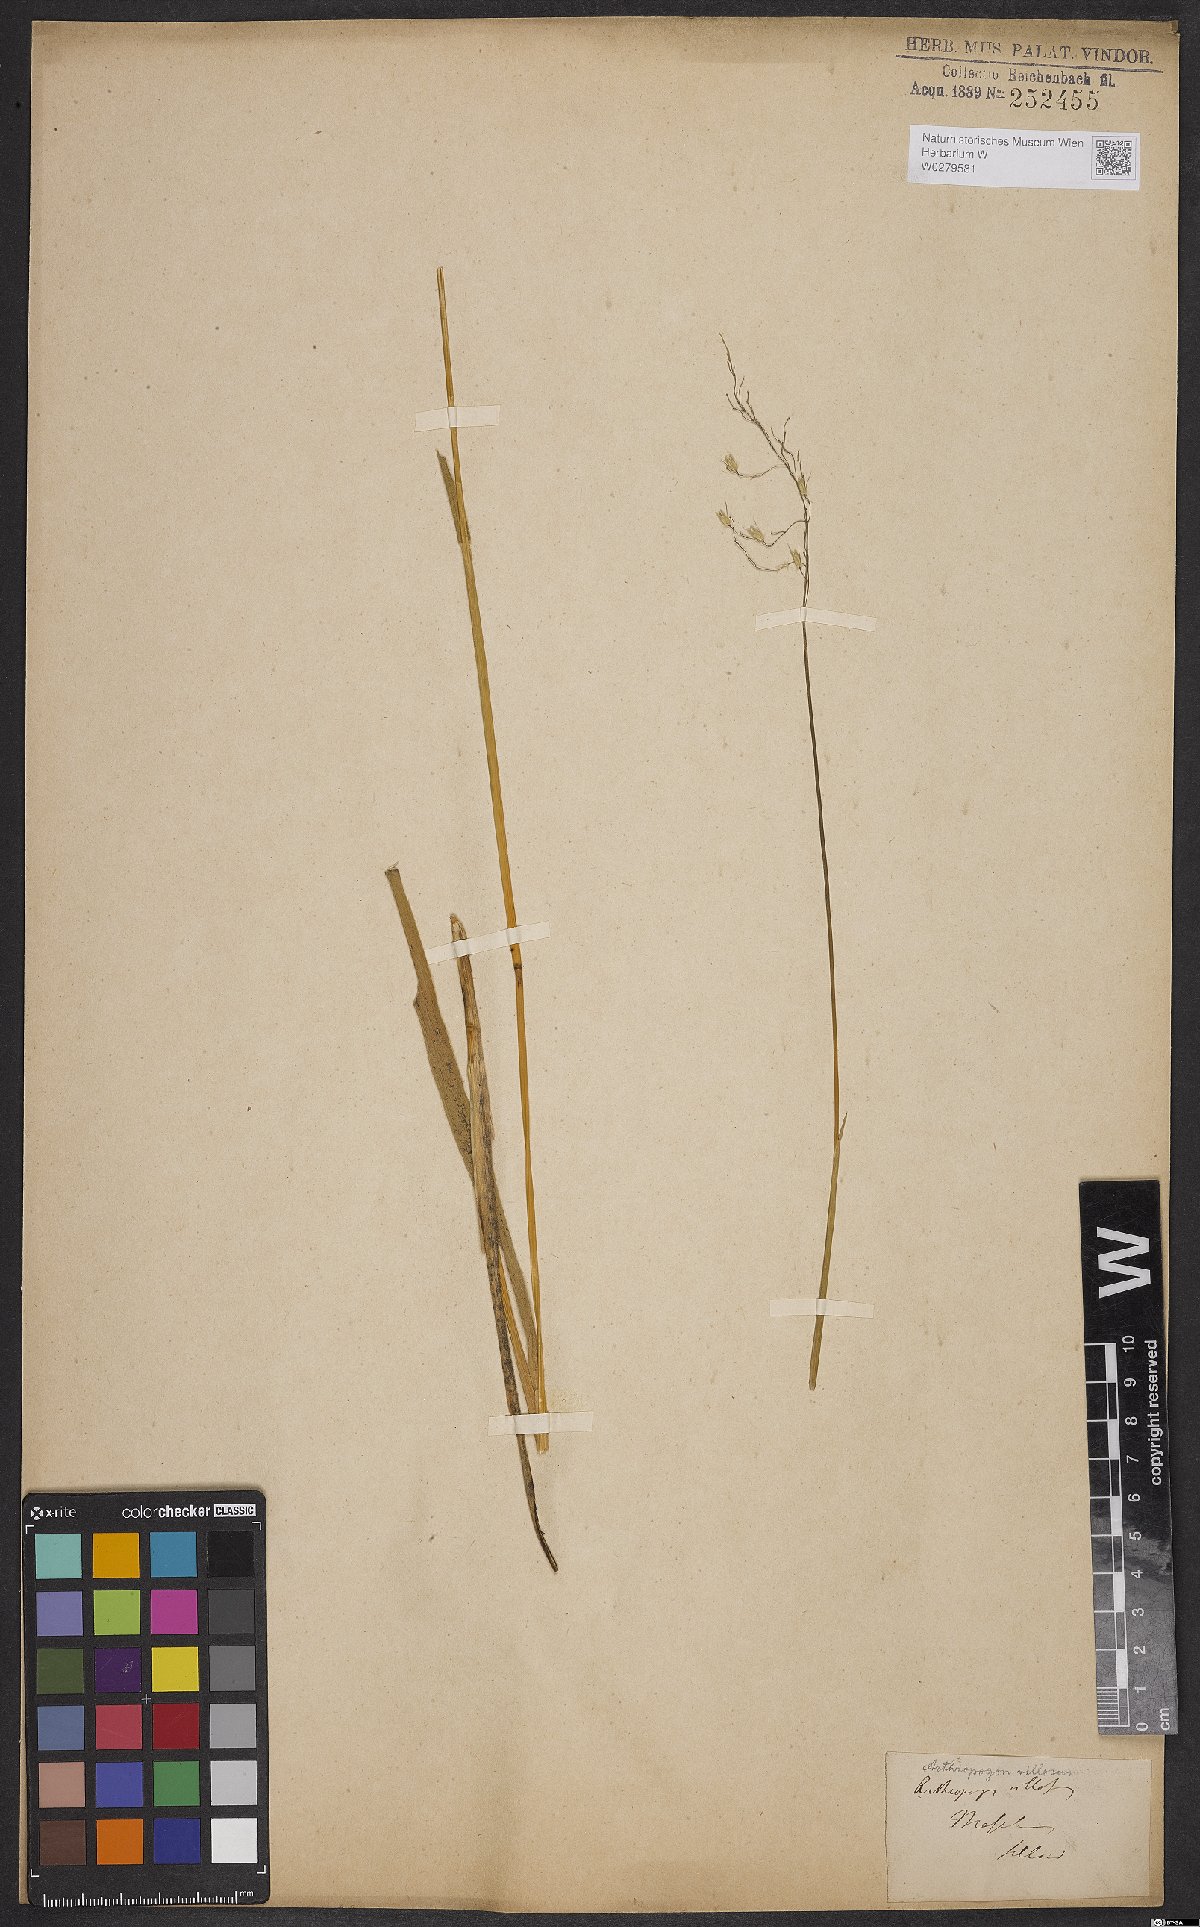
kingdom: Plantae
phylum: Tracheophyta
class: Liliopsida
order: Poales
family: Poaceae
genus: Arthropogon
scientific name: Arthropogon villosus
